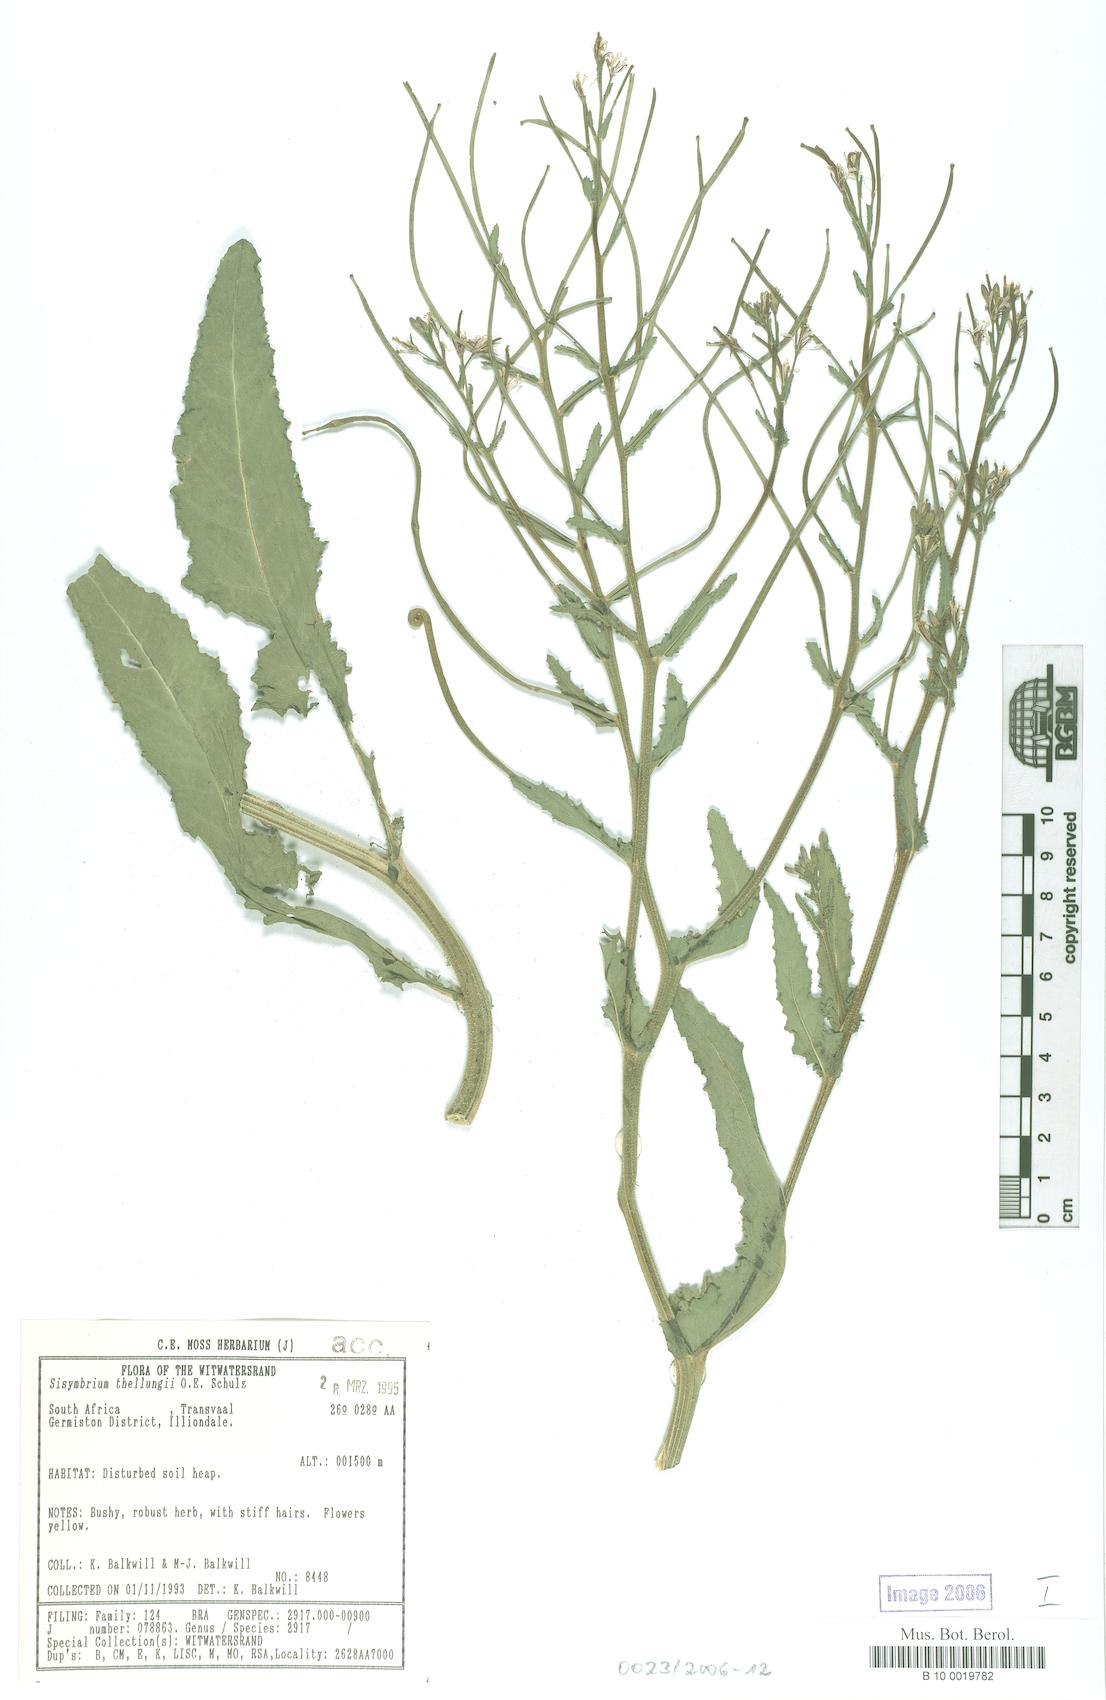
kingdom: Plantae
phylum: Tracheophyta
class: Magnoliopsida
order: Brassicales
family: Brassicaceae
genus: Erucastrum
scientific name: Erucastrum austroafricanum
